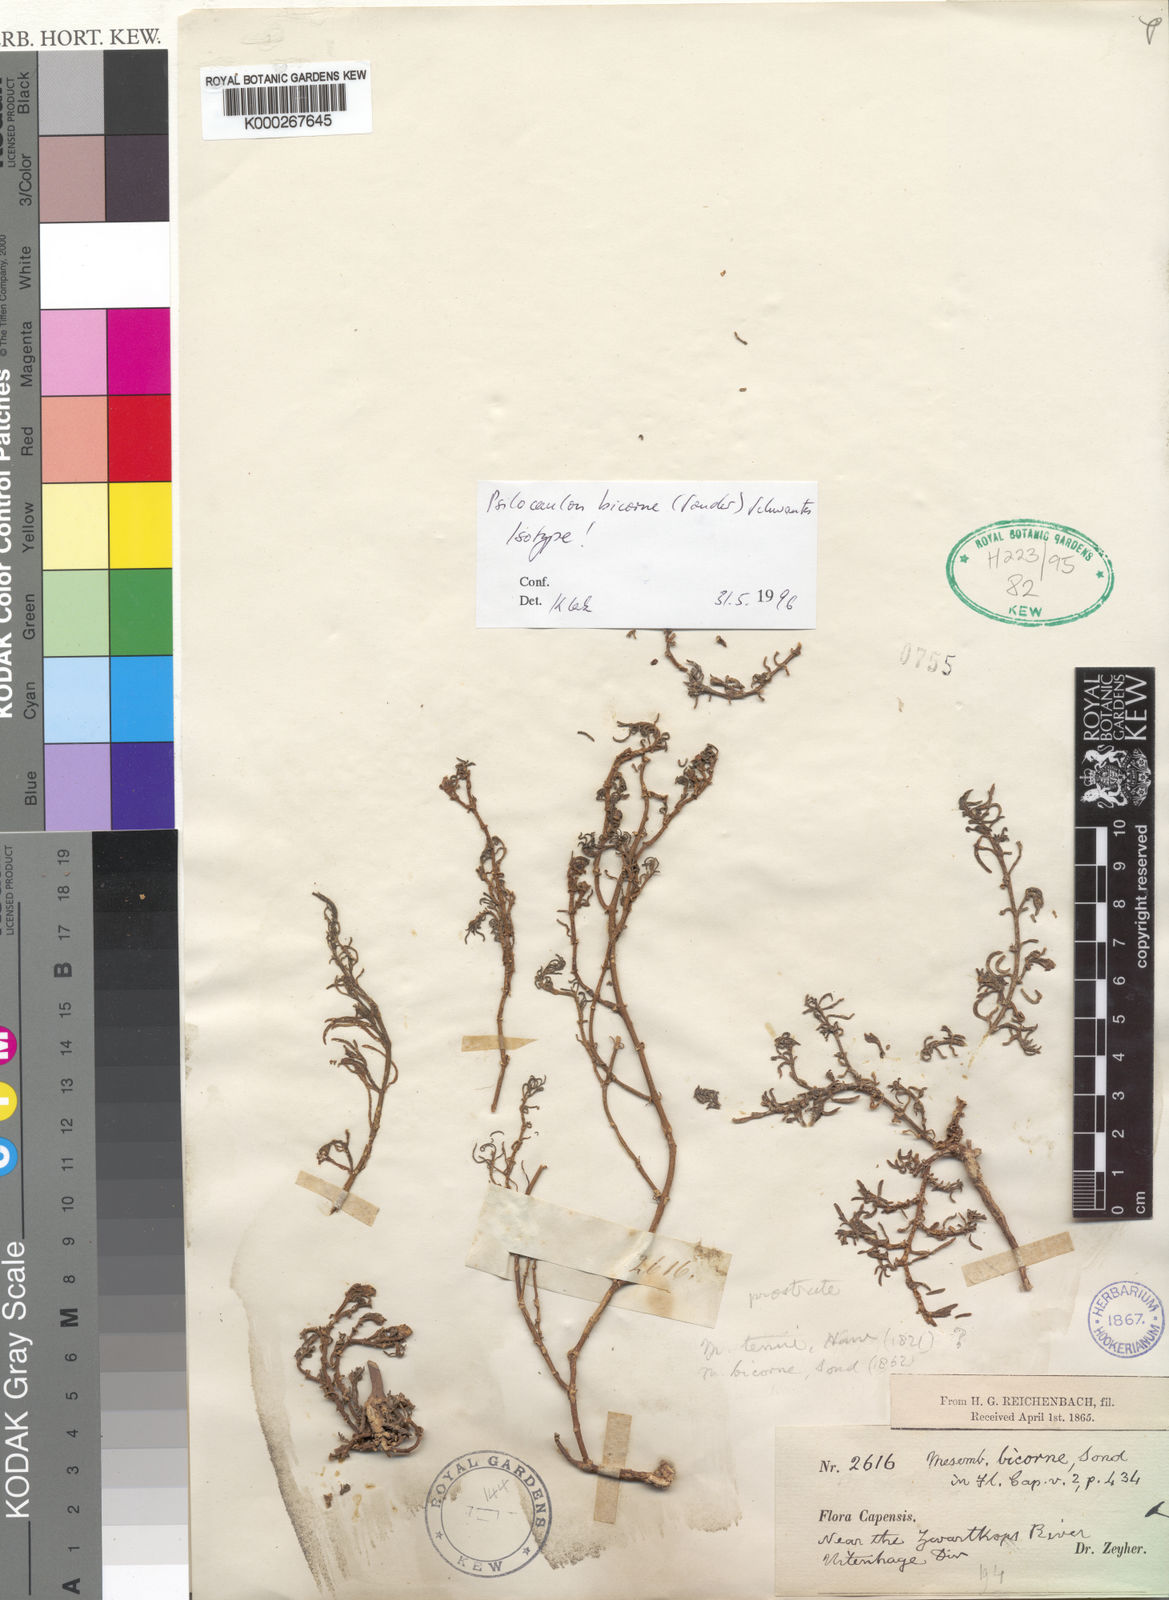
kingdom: Plantae
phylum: Tracheophyta
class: Magnoliopsida
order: Caryophyllales
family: Aizoaceae
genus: Mesembryanthemum
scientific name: Mesembryanthemum bicorne
